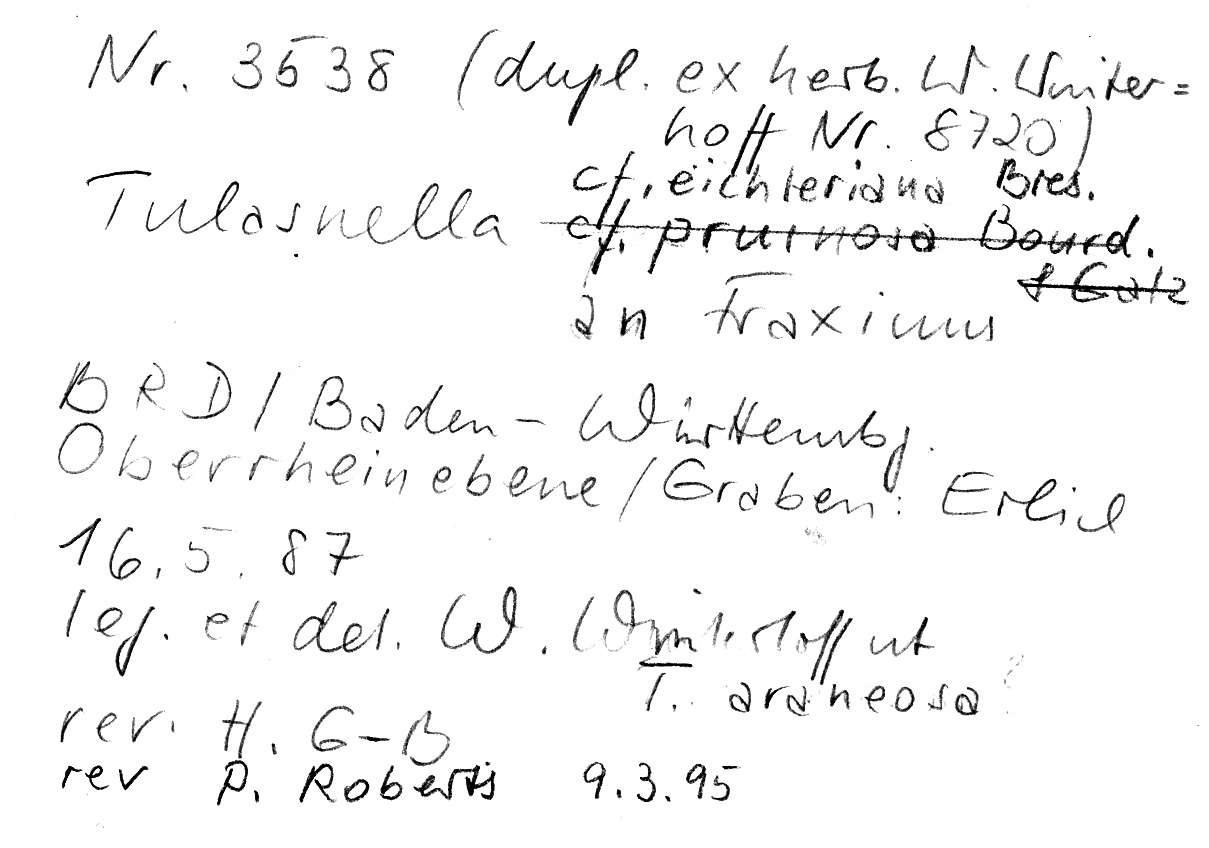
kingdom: Plantae
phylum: Tracheophyta
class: Magnoliopsida
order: Lamiales
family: Oleaceae
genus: Fraxinus
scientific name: Fraxinus
